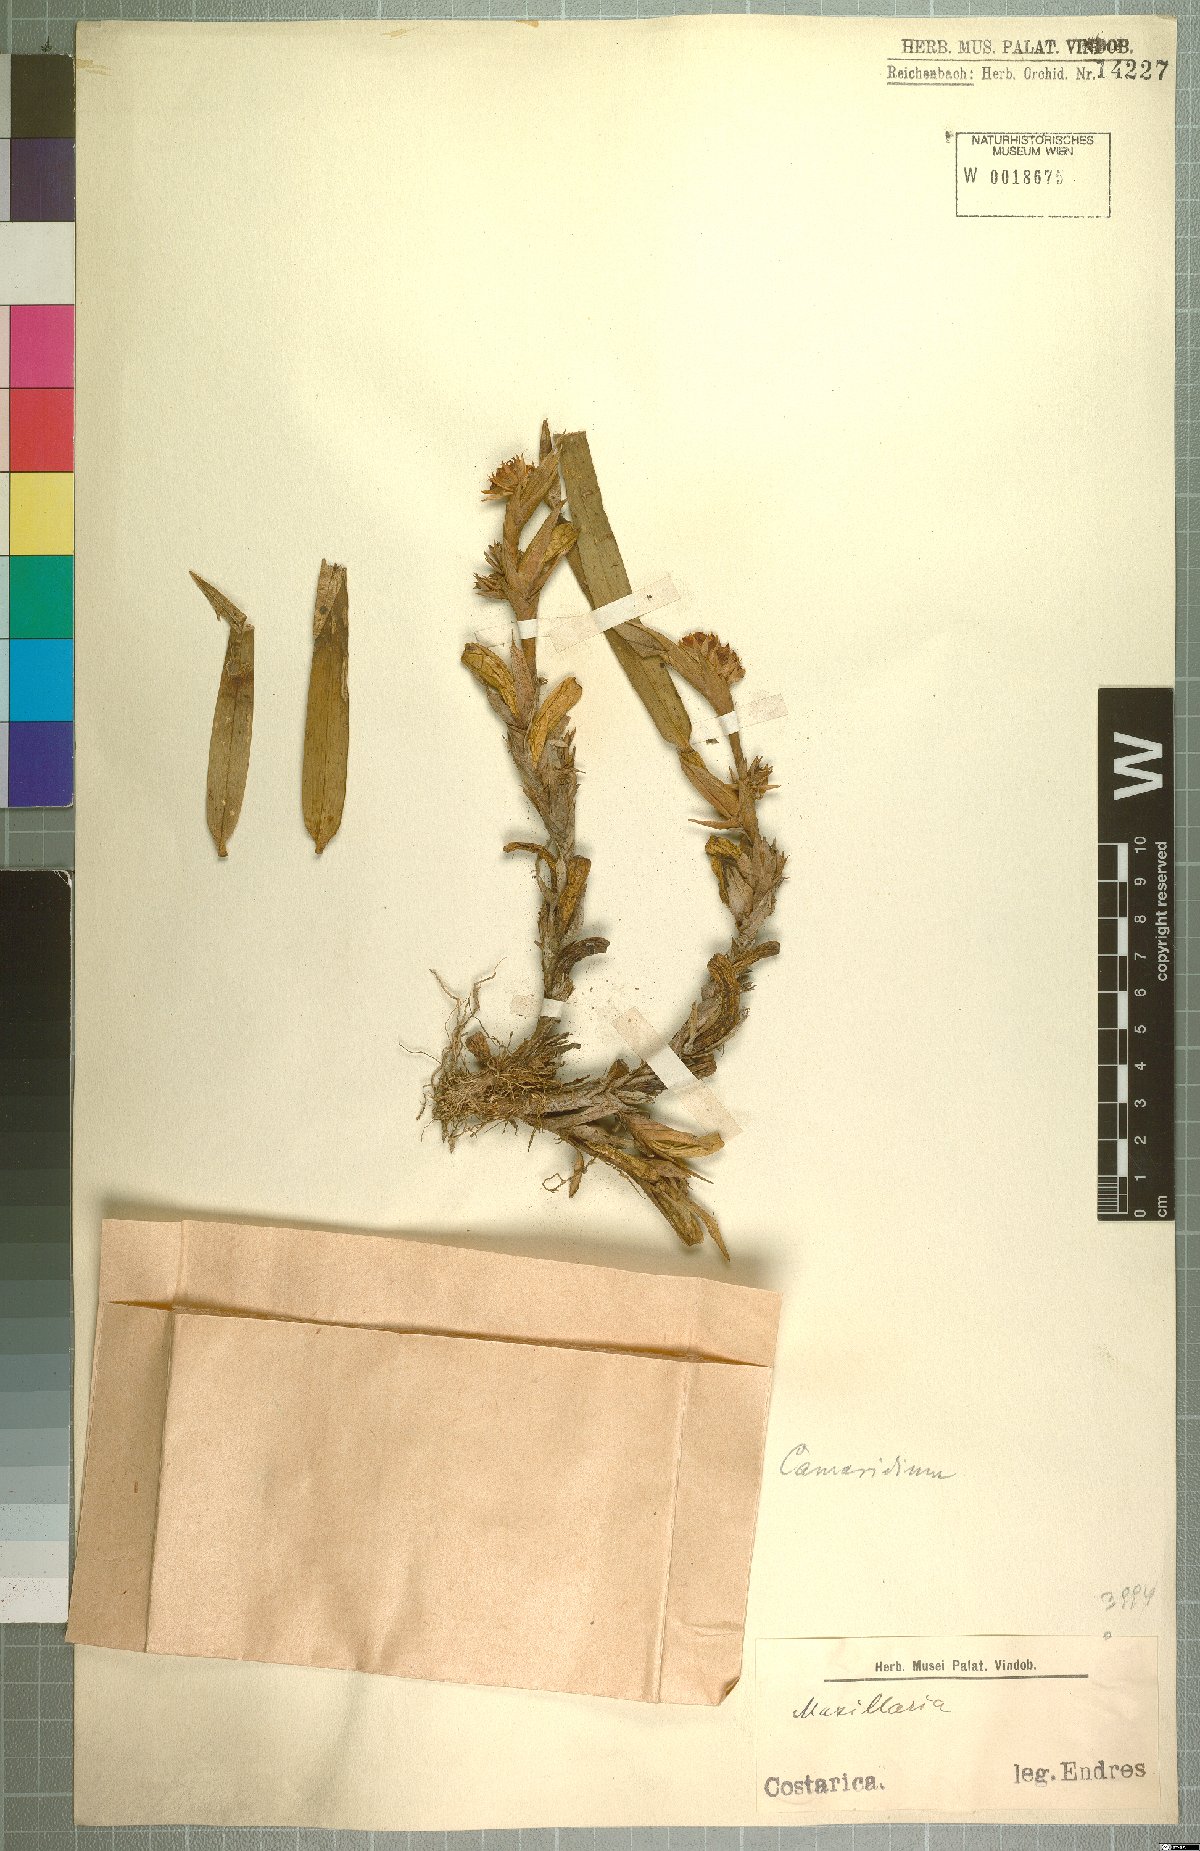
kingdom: Plantae
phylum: Tracheophyta
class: Liliopsida
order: Asparagales
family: Orchidaceae
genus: Maxillaria
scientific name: Maxillaria
